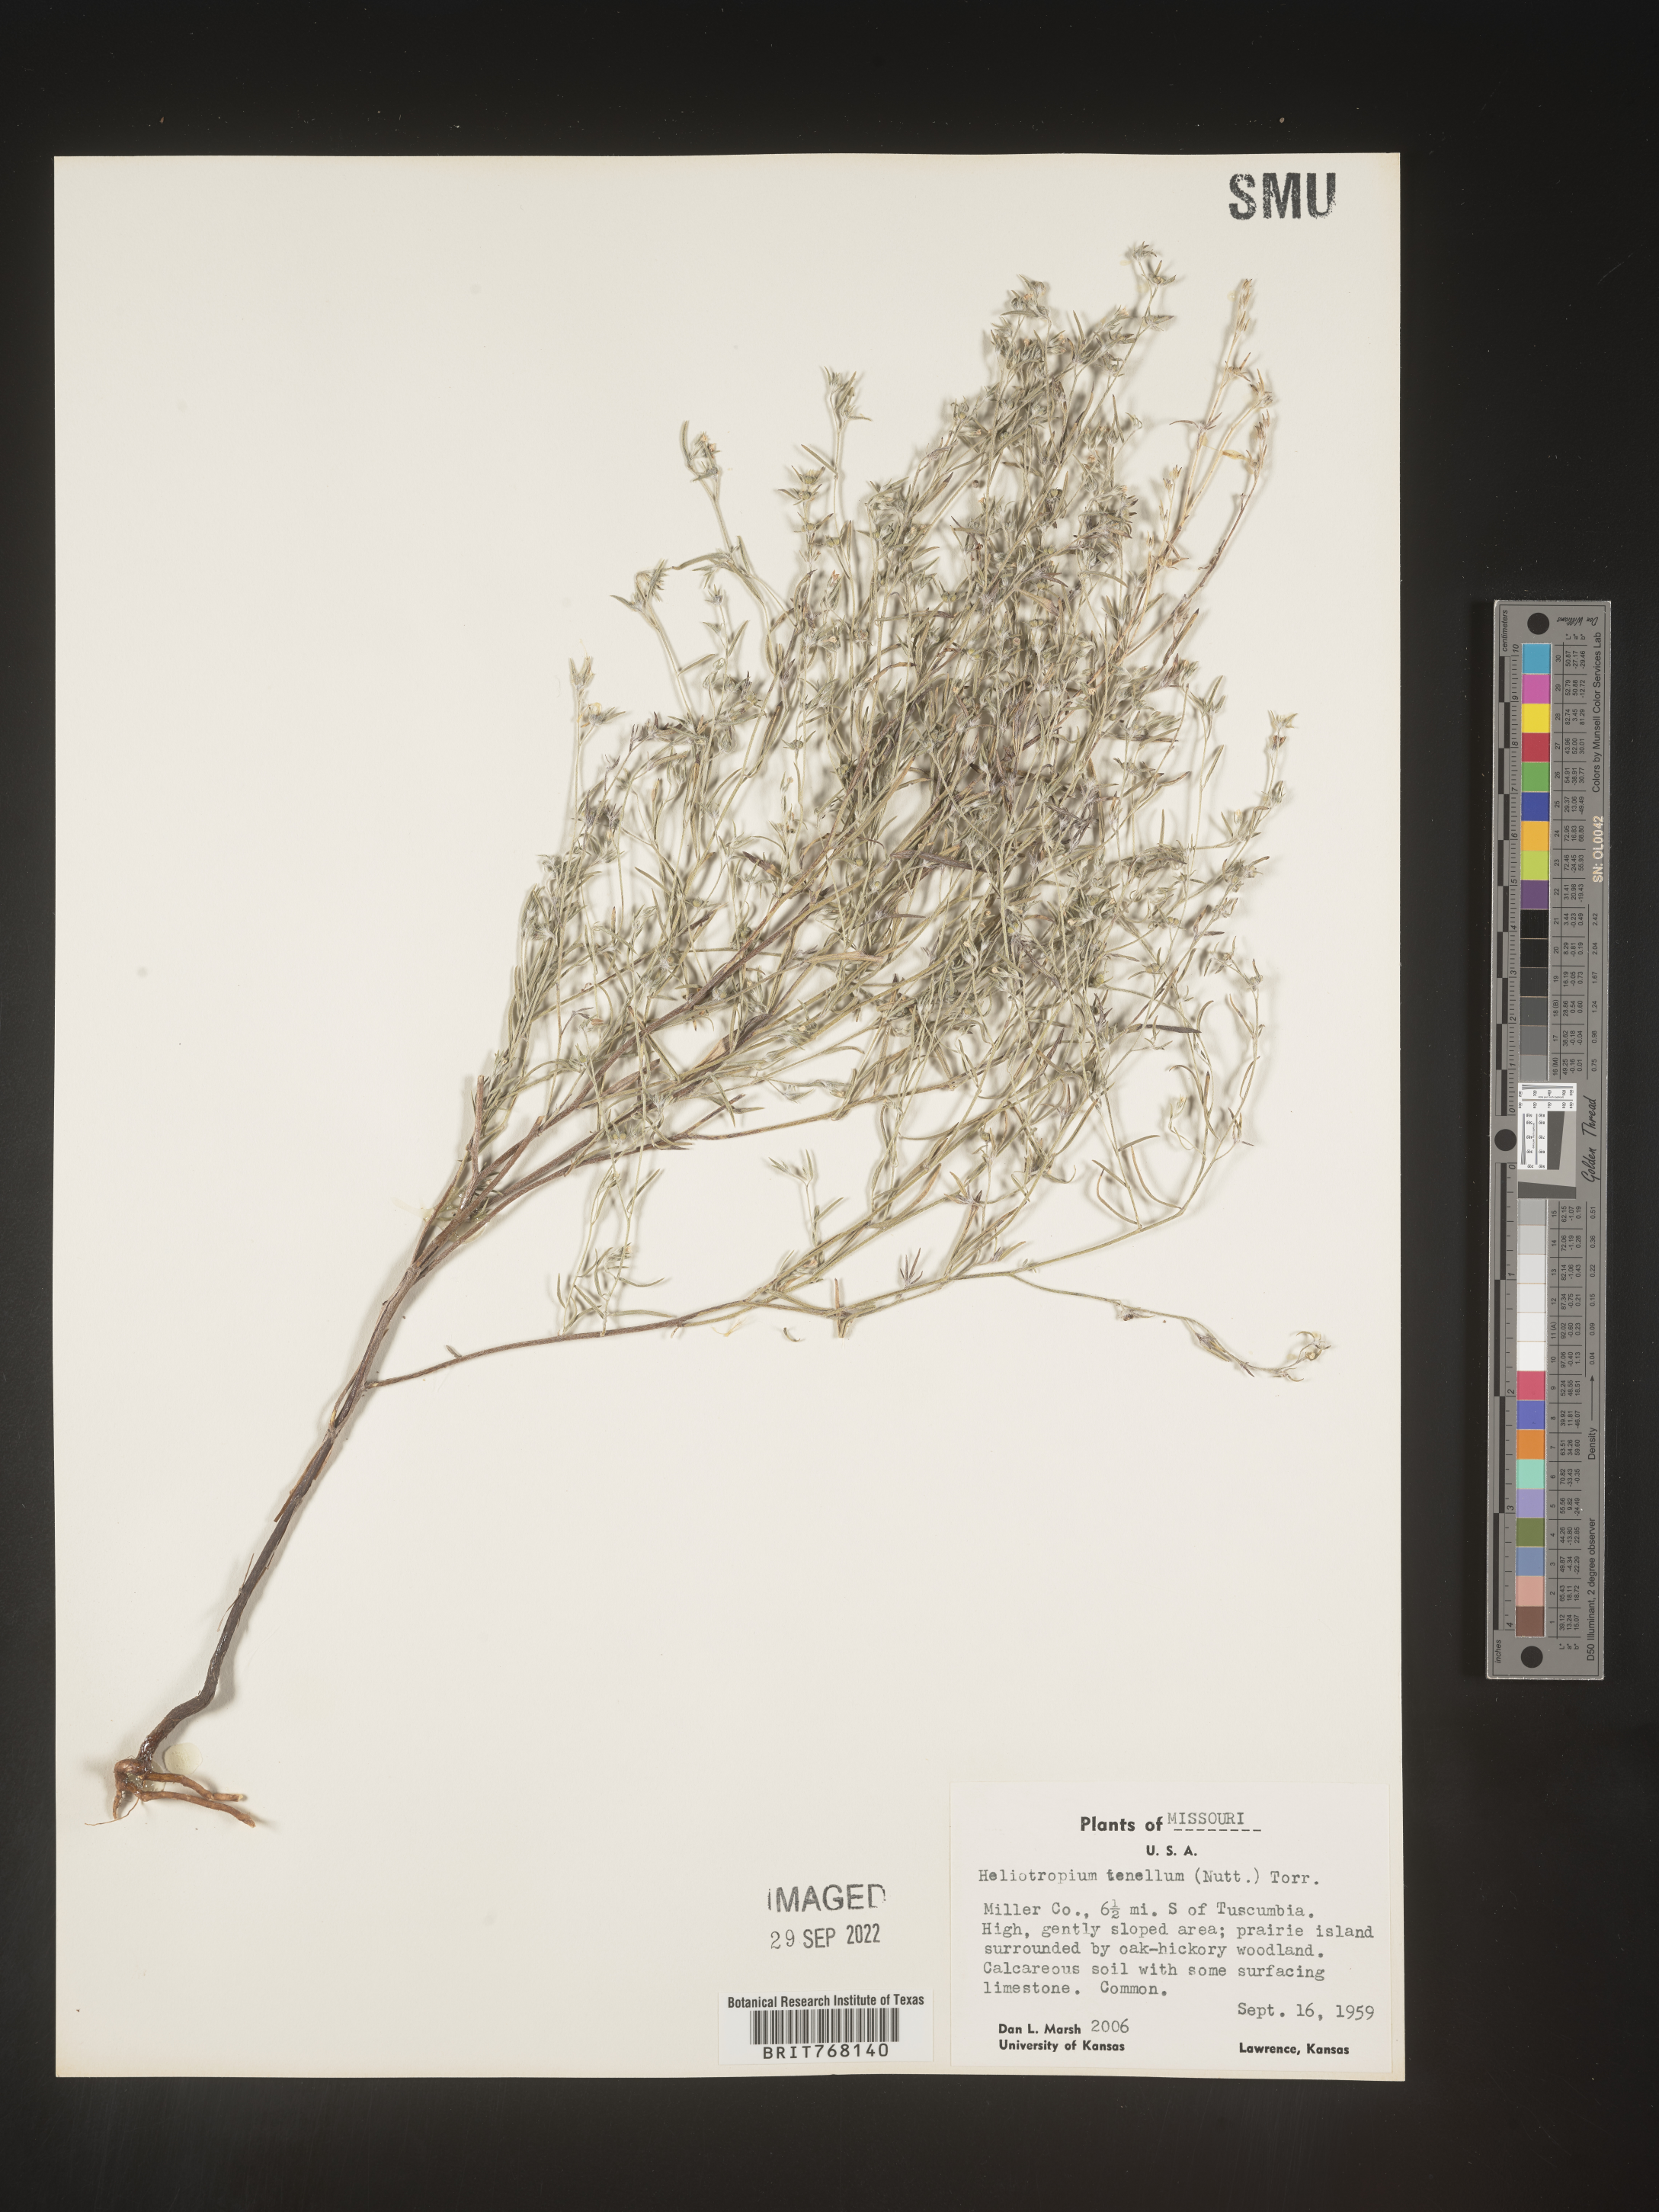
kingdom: Plantae
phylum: Tracheophyta
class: Magnoliopsida
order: Boraginales
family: Heliotropiaceae
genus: Euploca
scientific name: Euploca tenella
